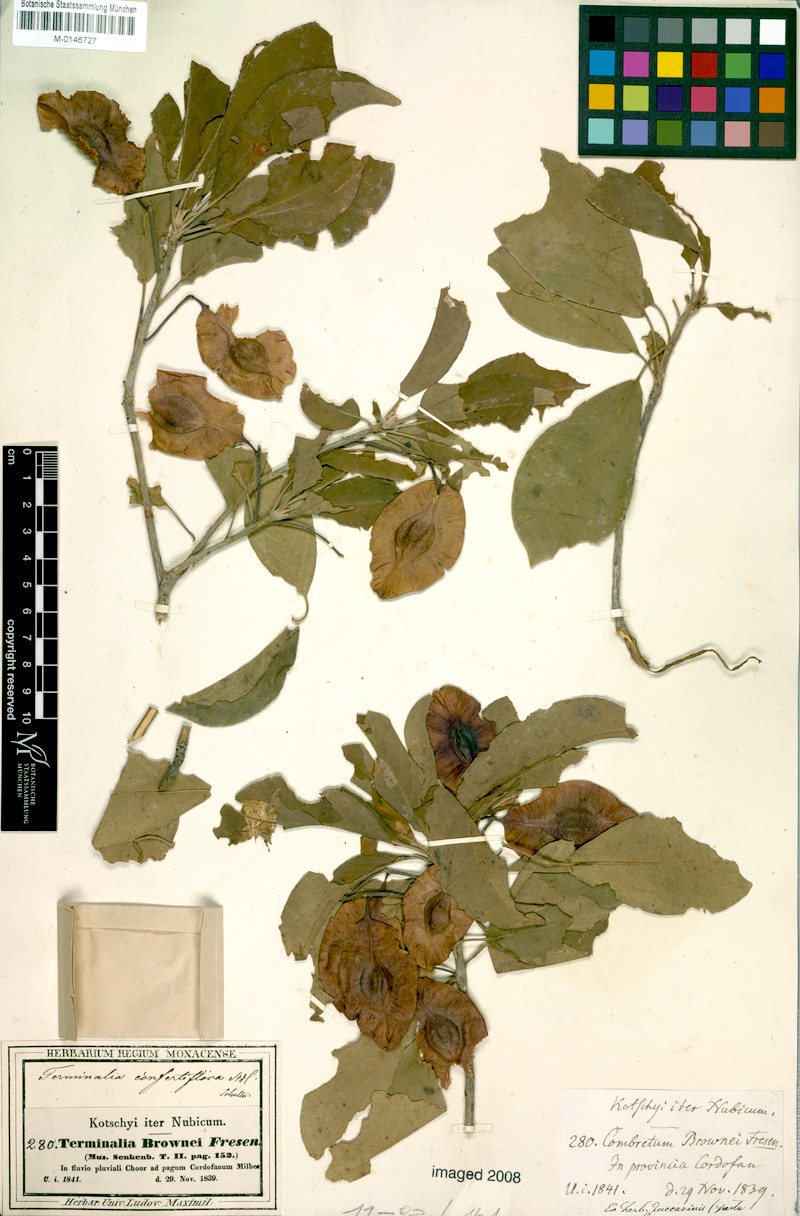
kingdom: Plantae
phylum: Tracheophyta
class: Magnoliopsida
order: Myrtales
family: Combretaceae
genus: Terminalia
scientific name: Terminalia brownii
